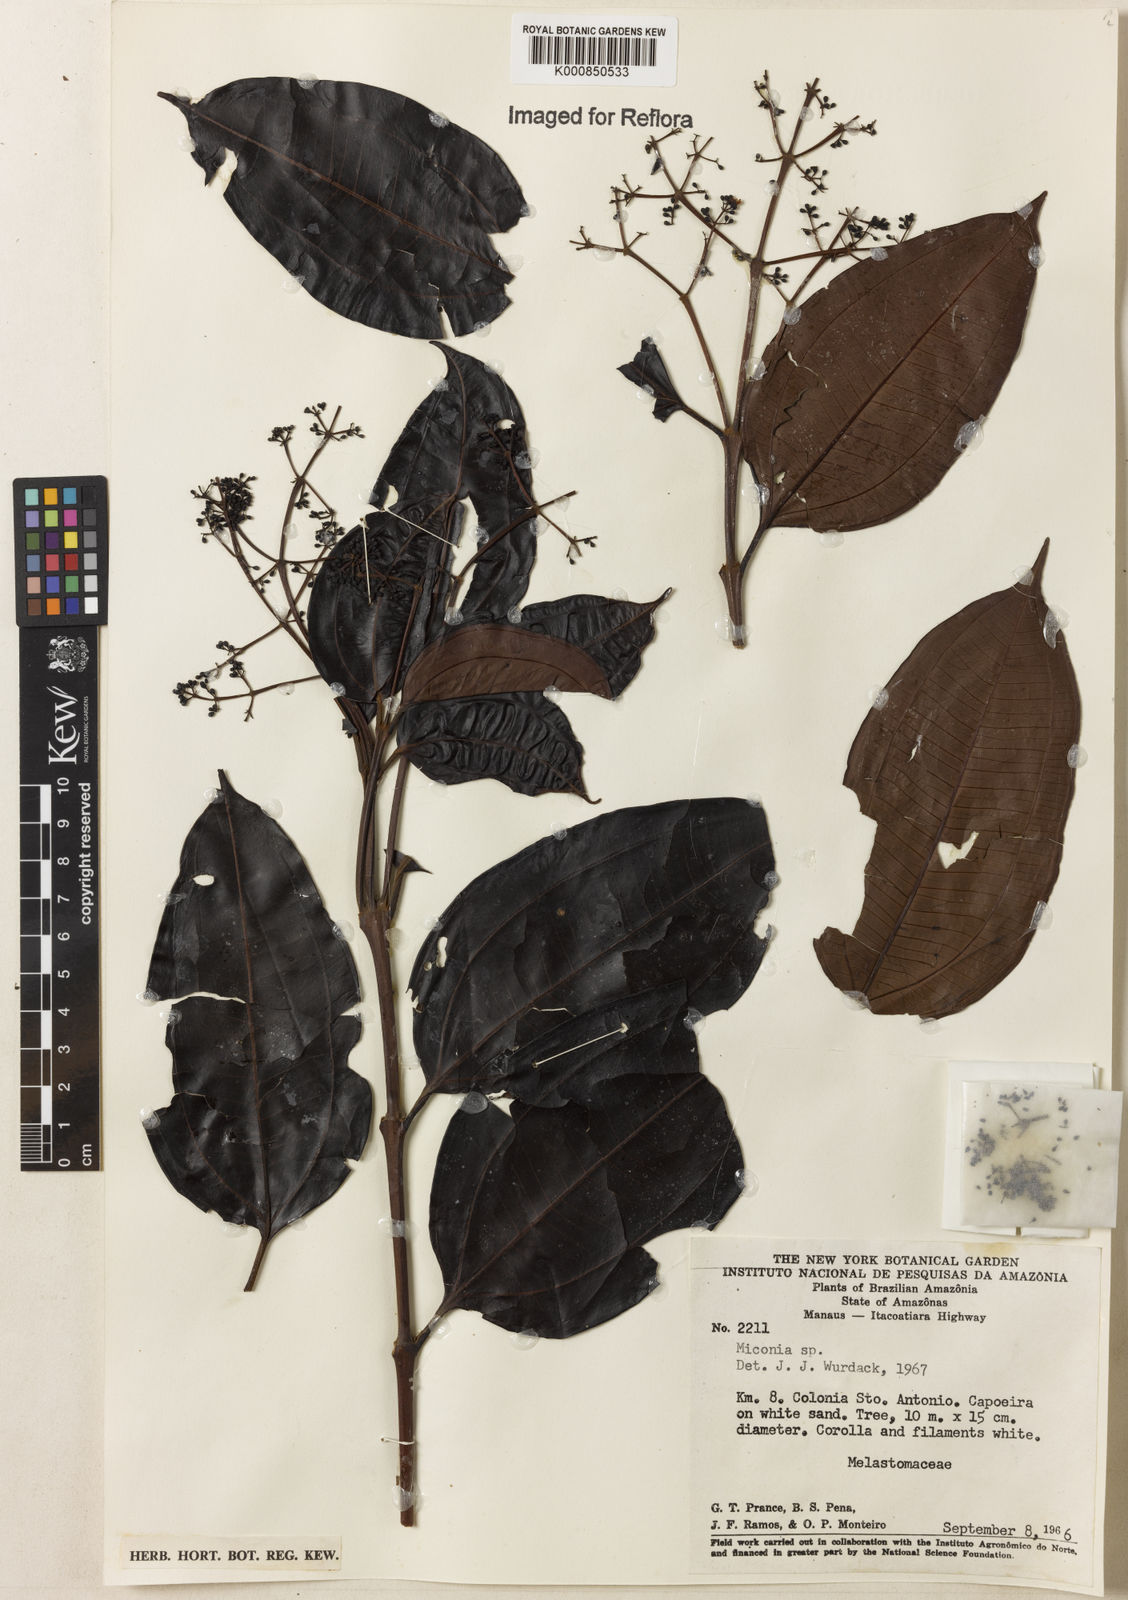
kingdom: Plantae
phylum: Tracheophyta
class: Magnoliopsida
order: Myrtales
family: Melastomataceae
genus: Miconia
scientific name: Miconia
